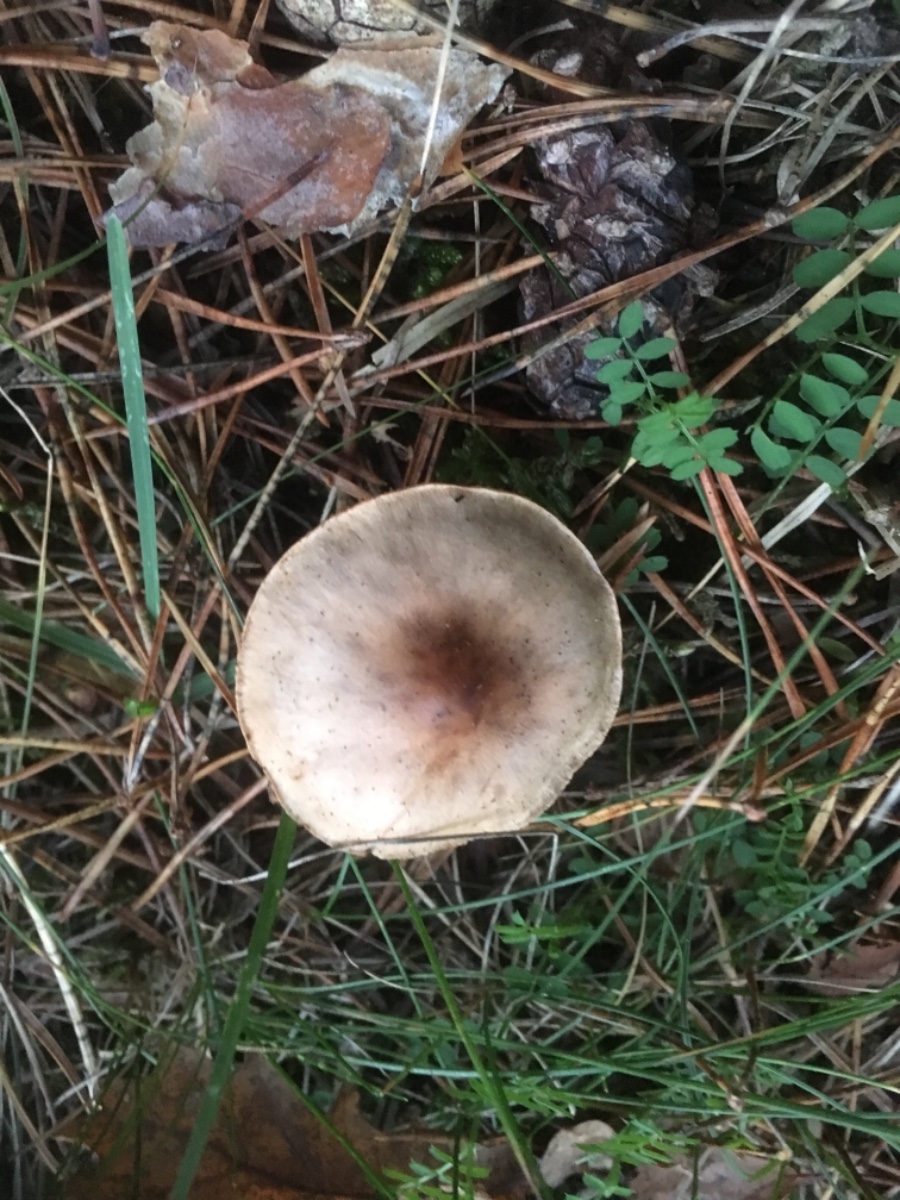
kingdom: Fungi
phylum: Basidiomycota
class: Agaricomycetes
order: Agaricales
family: Entolomataceae
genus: Entoloma
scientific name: Entoloma
